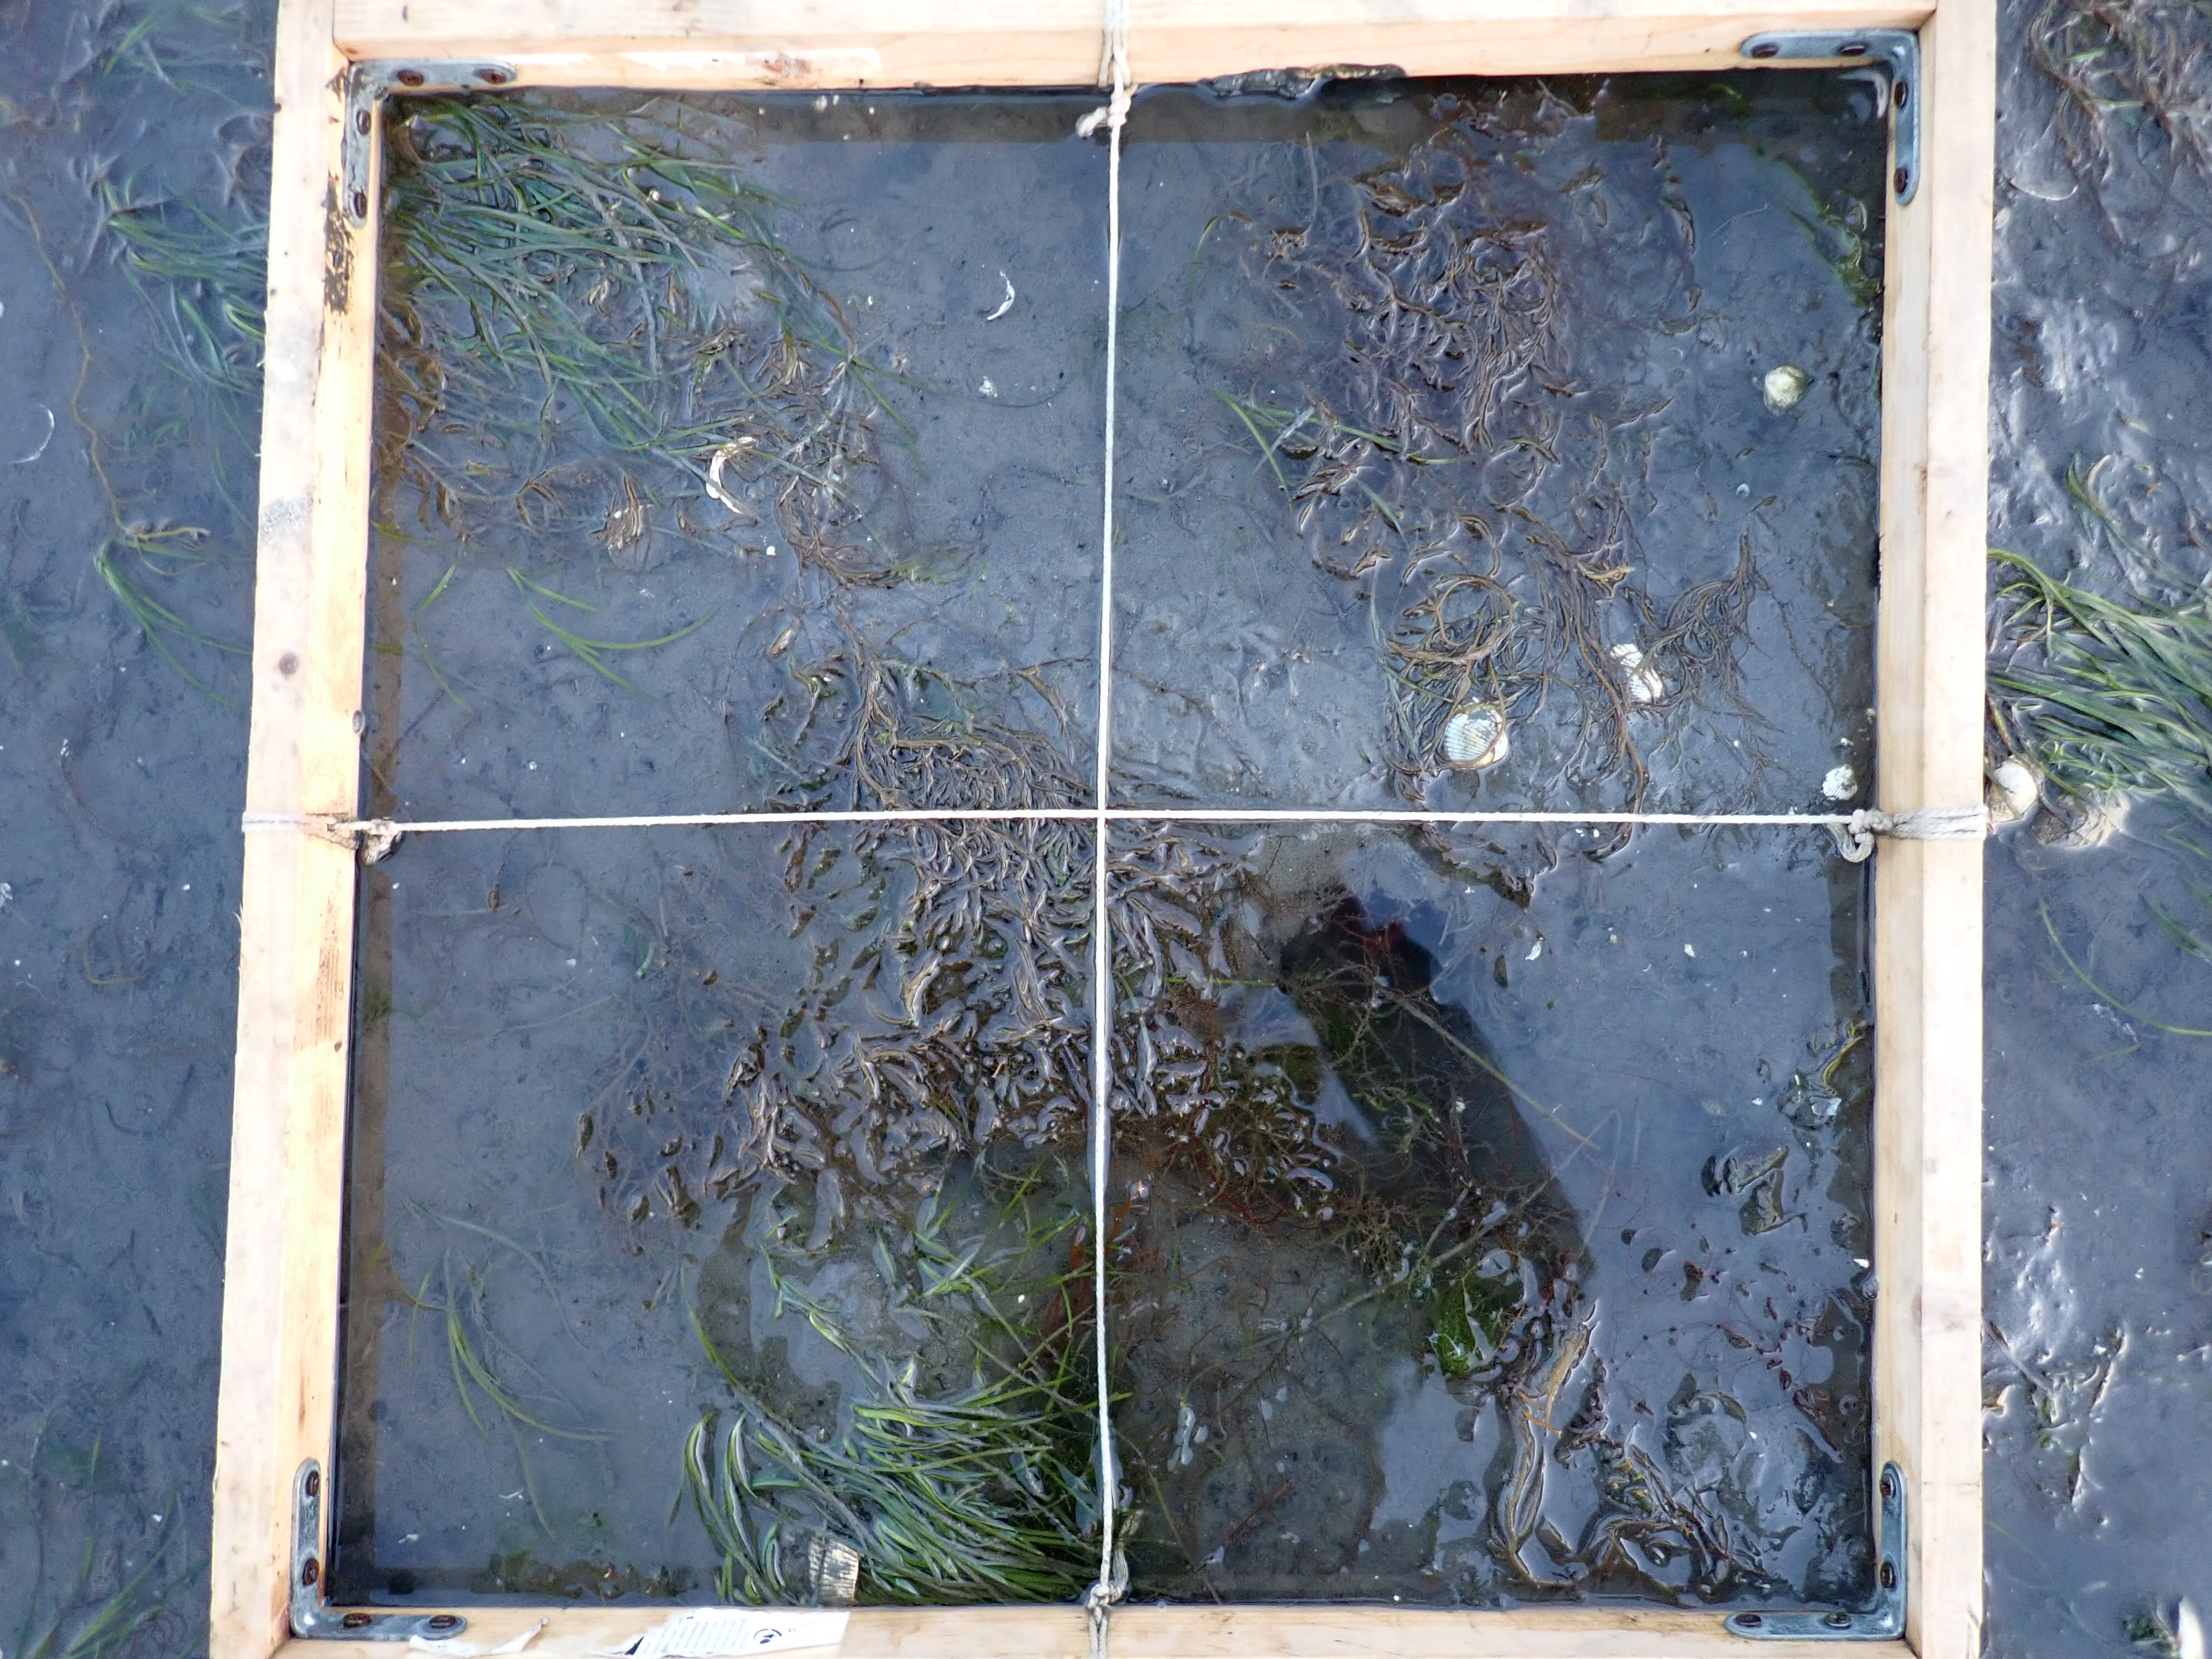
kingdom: Plantae
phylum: Tracheophyta
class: Liliopsida
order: Alismatales
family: Zosteraceae
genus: Zostera
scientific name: Zostera noltii
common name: Dwarf eelgrass
